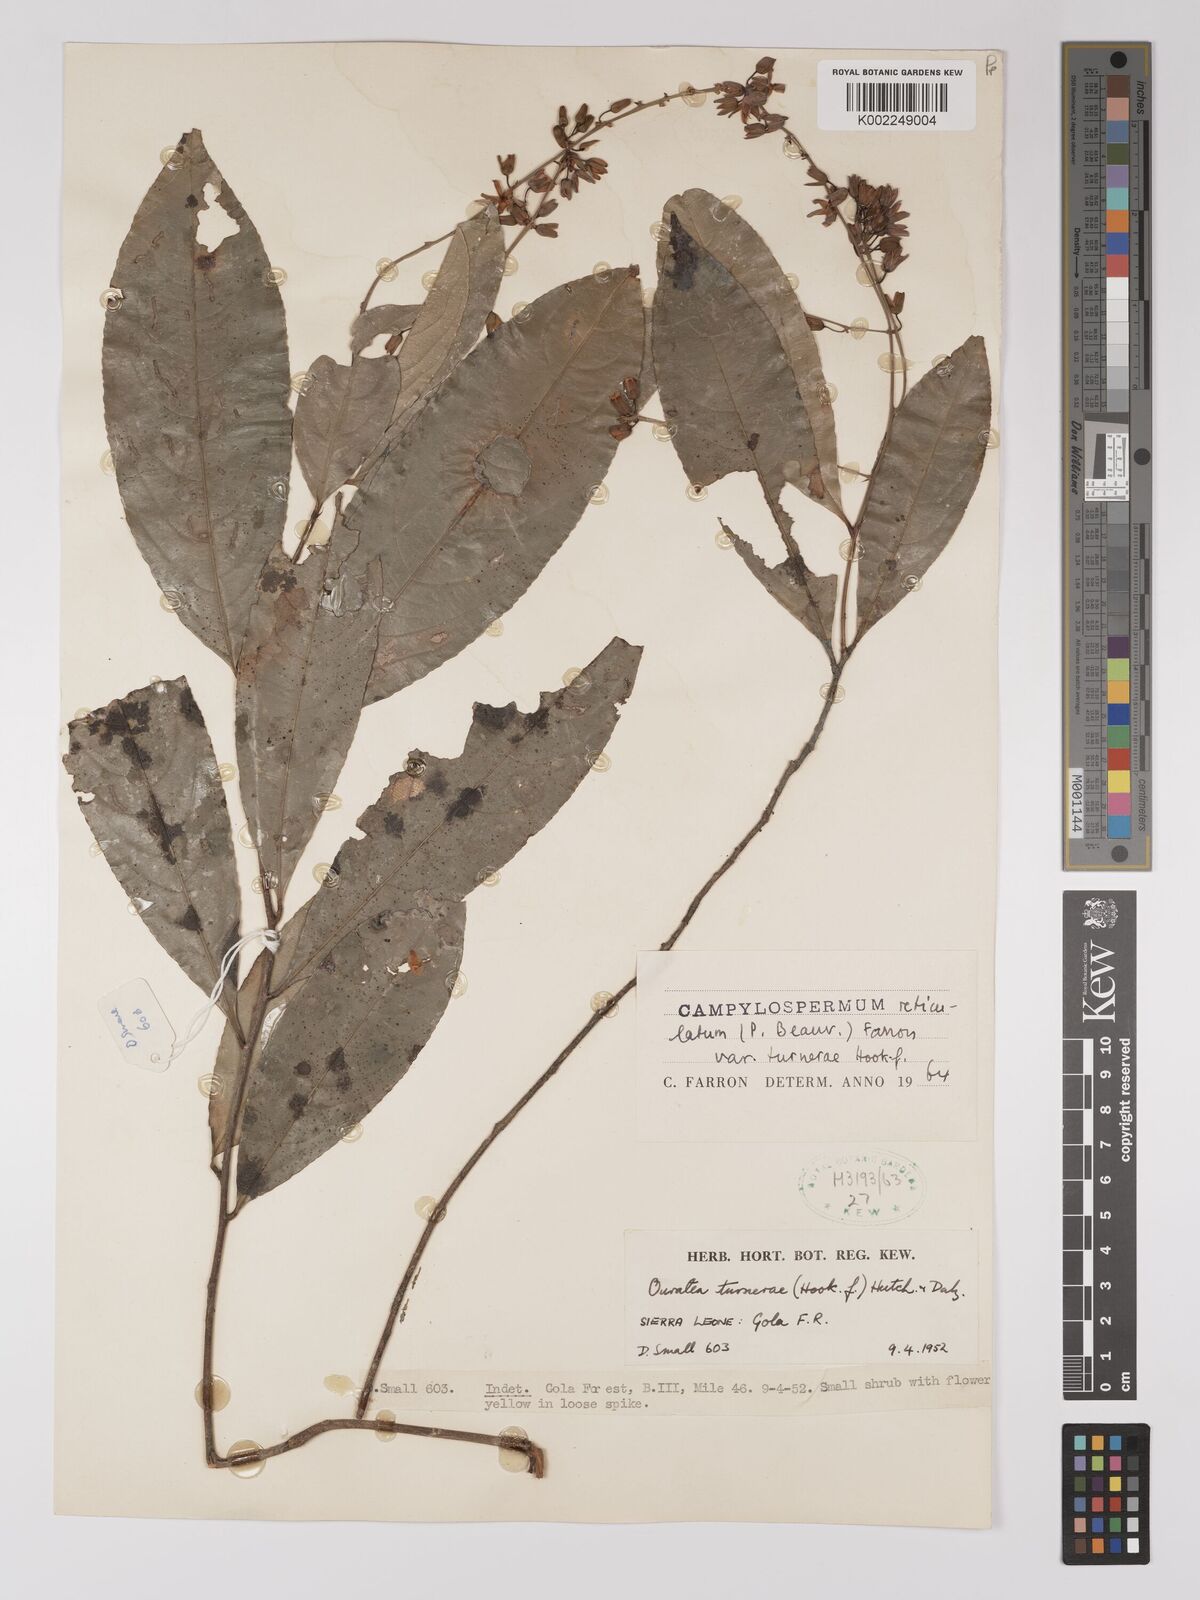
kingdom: Plantae
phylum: Tracheophyta
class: Magnoliopsida
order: Malpighiales
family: Ochnaceae
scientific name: Ochnaceae
